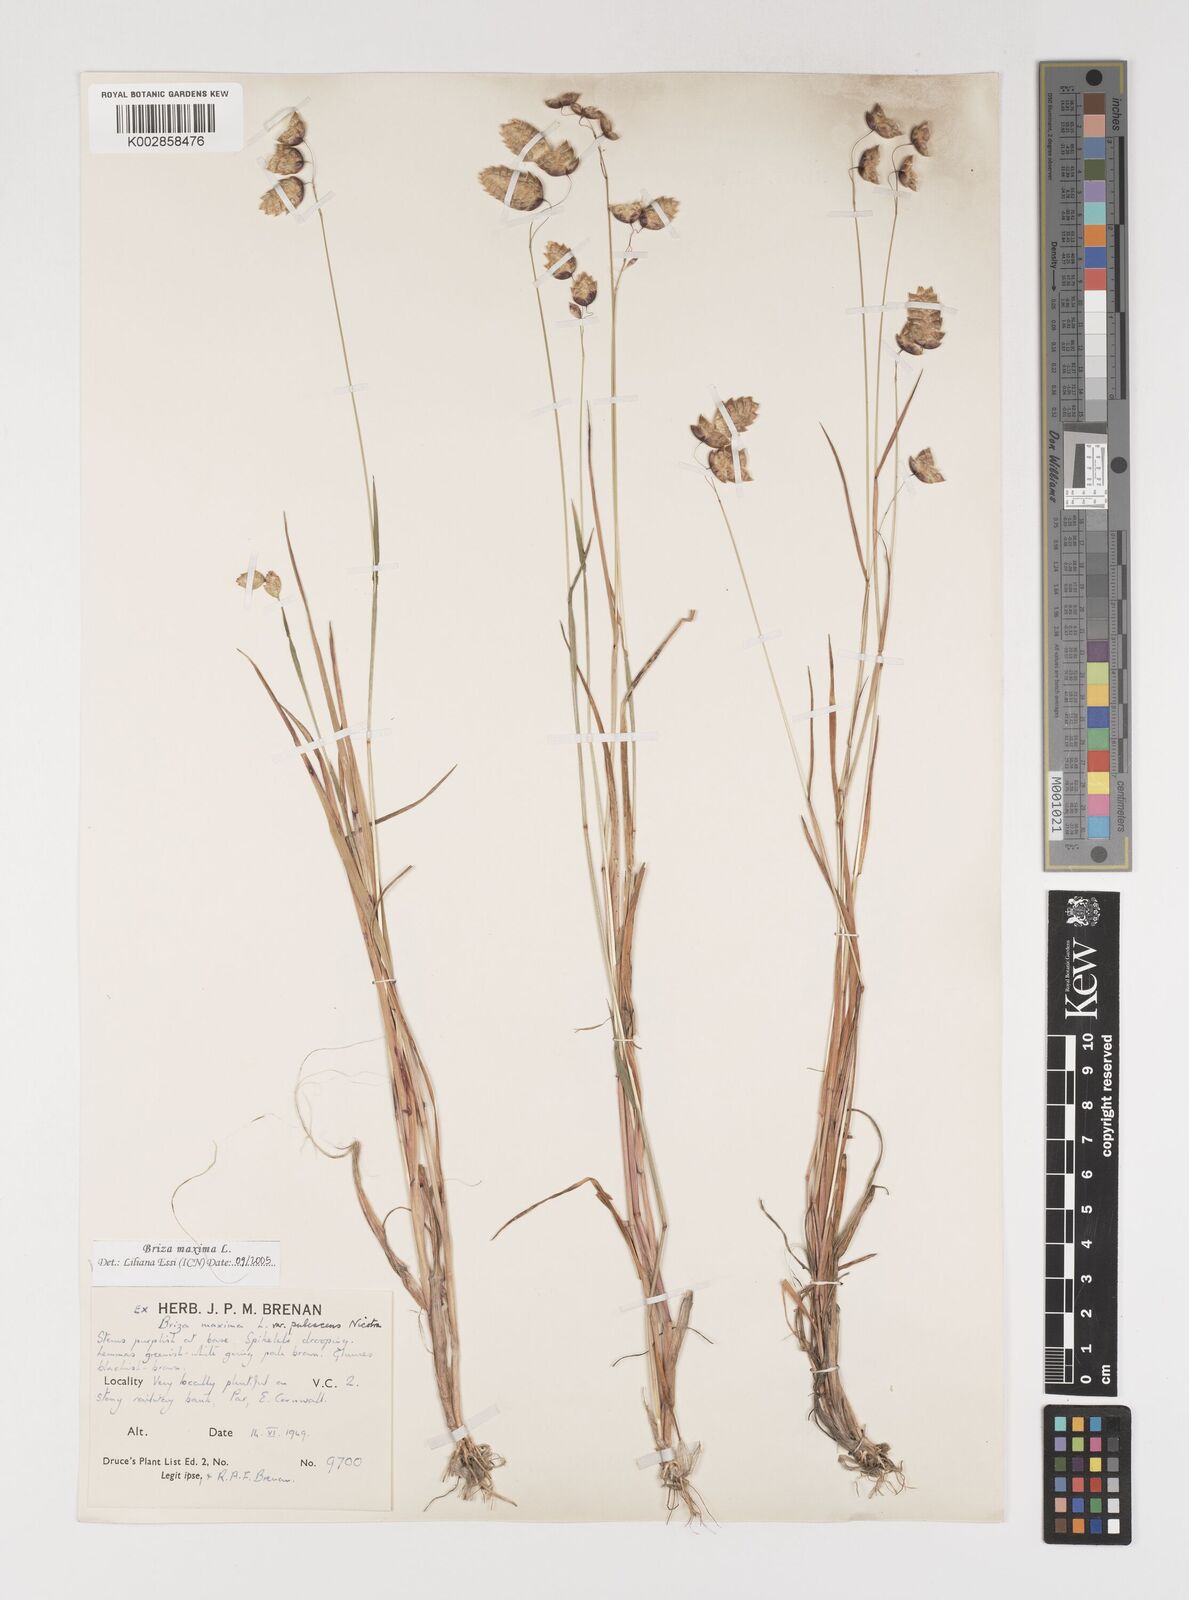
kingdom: Plantae
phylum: Tracheophyta
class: Liliopsida
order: Poales
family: Poaceae
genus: Briza
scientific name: Briza maxima
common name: Big quakinggrass
